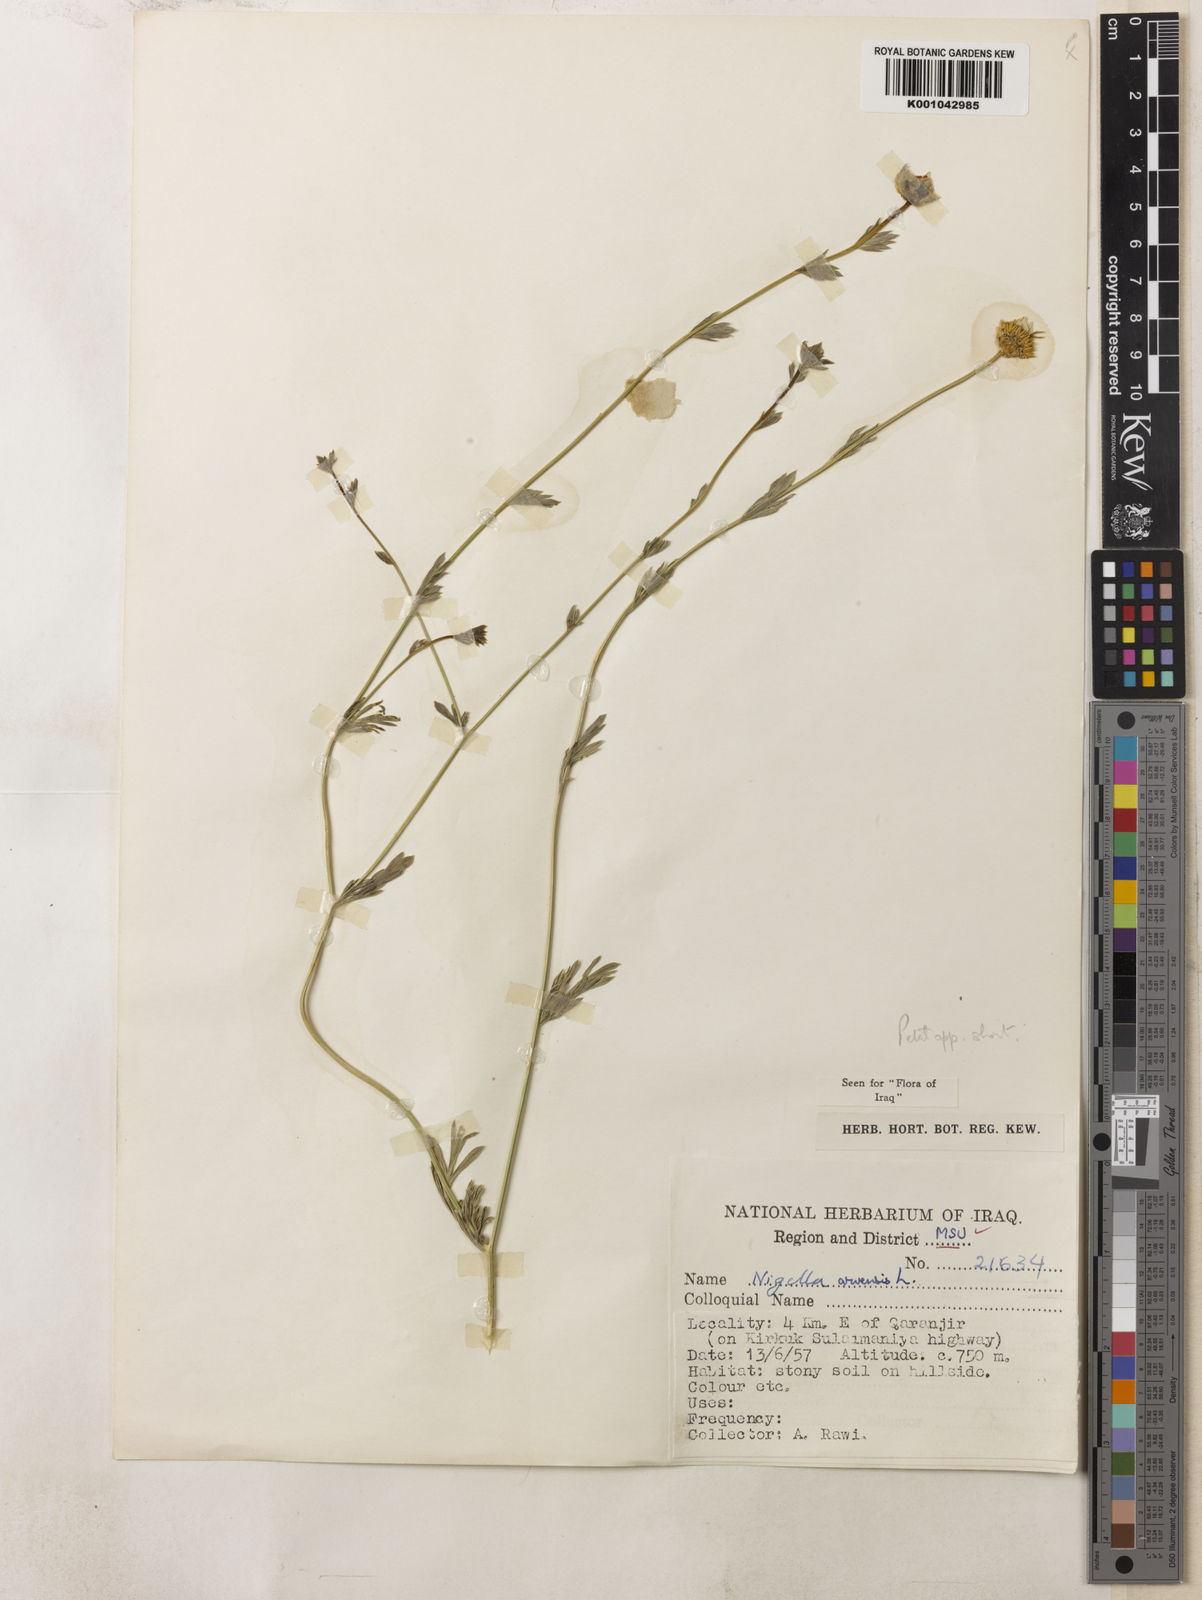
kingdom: Plantae
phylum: Tracheophyta
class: Magnoliopsida
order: Ranunculales
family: Ranunculaceae
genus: Nigella
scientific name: Nigella arvensis
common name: Wild fennel-flower
